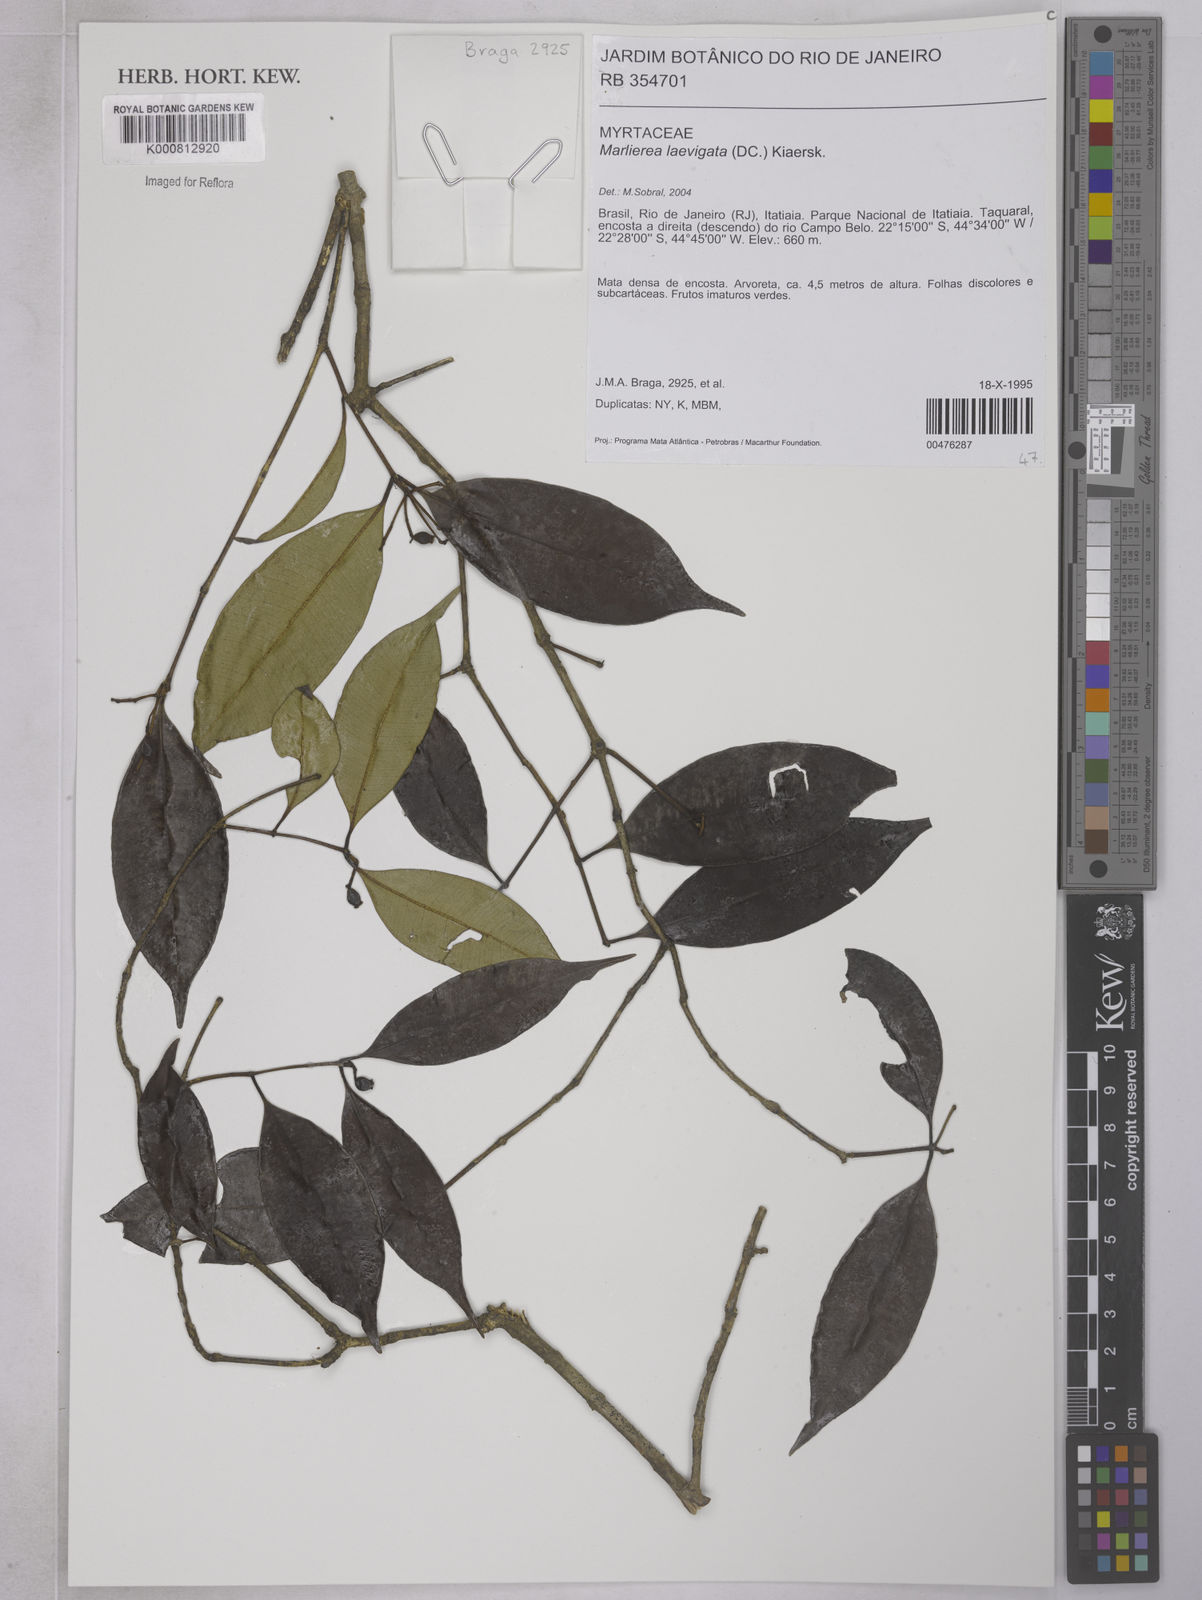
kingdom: Plantae
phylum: Tracheophyta
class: Magnoliopsida
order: Myrtales
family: Myrtaceae
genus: Myrcia
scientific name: Myrcia multipunctata
